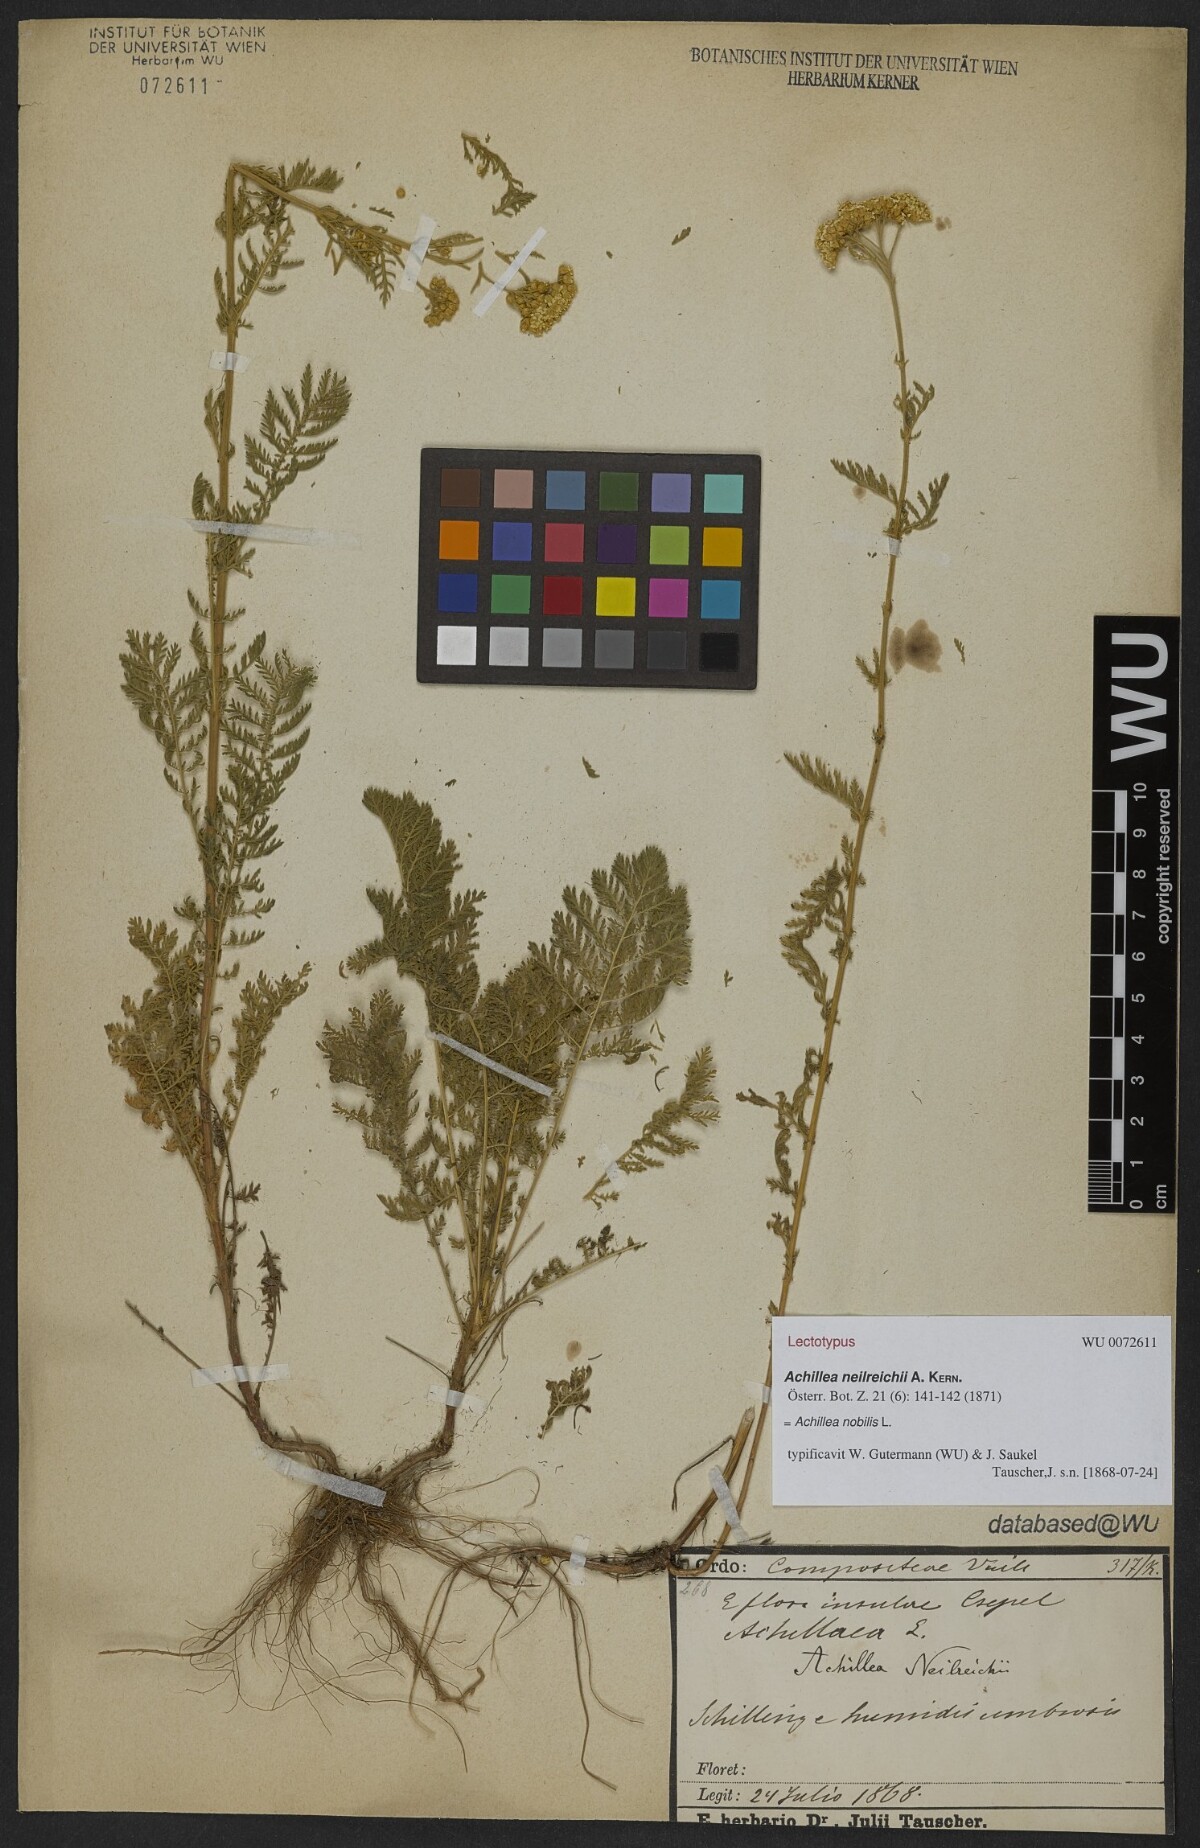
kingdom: Plantae
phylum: Tracheophyta
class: Magnoliopsida
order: Asterales
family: Asteraceae
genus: Achillea
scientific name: Achillea nobilis
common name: Noble yarrow
